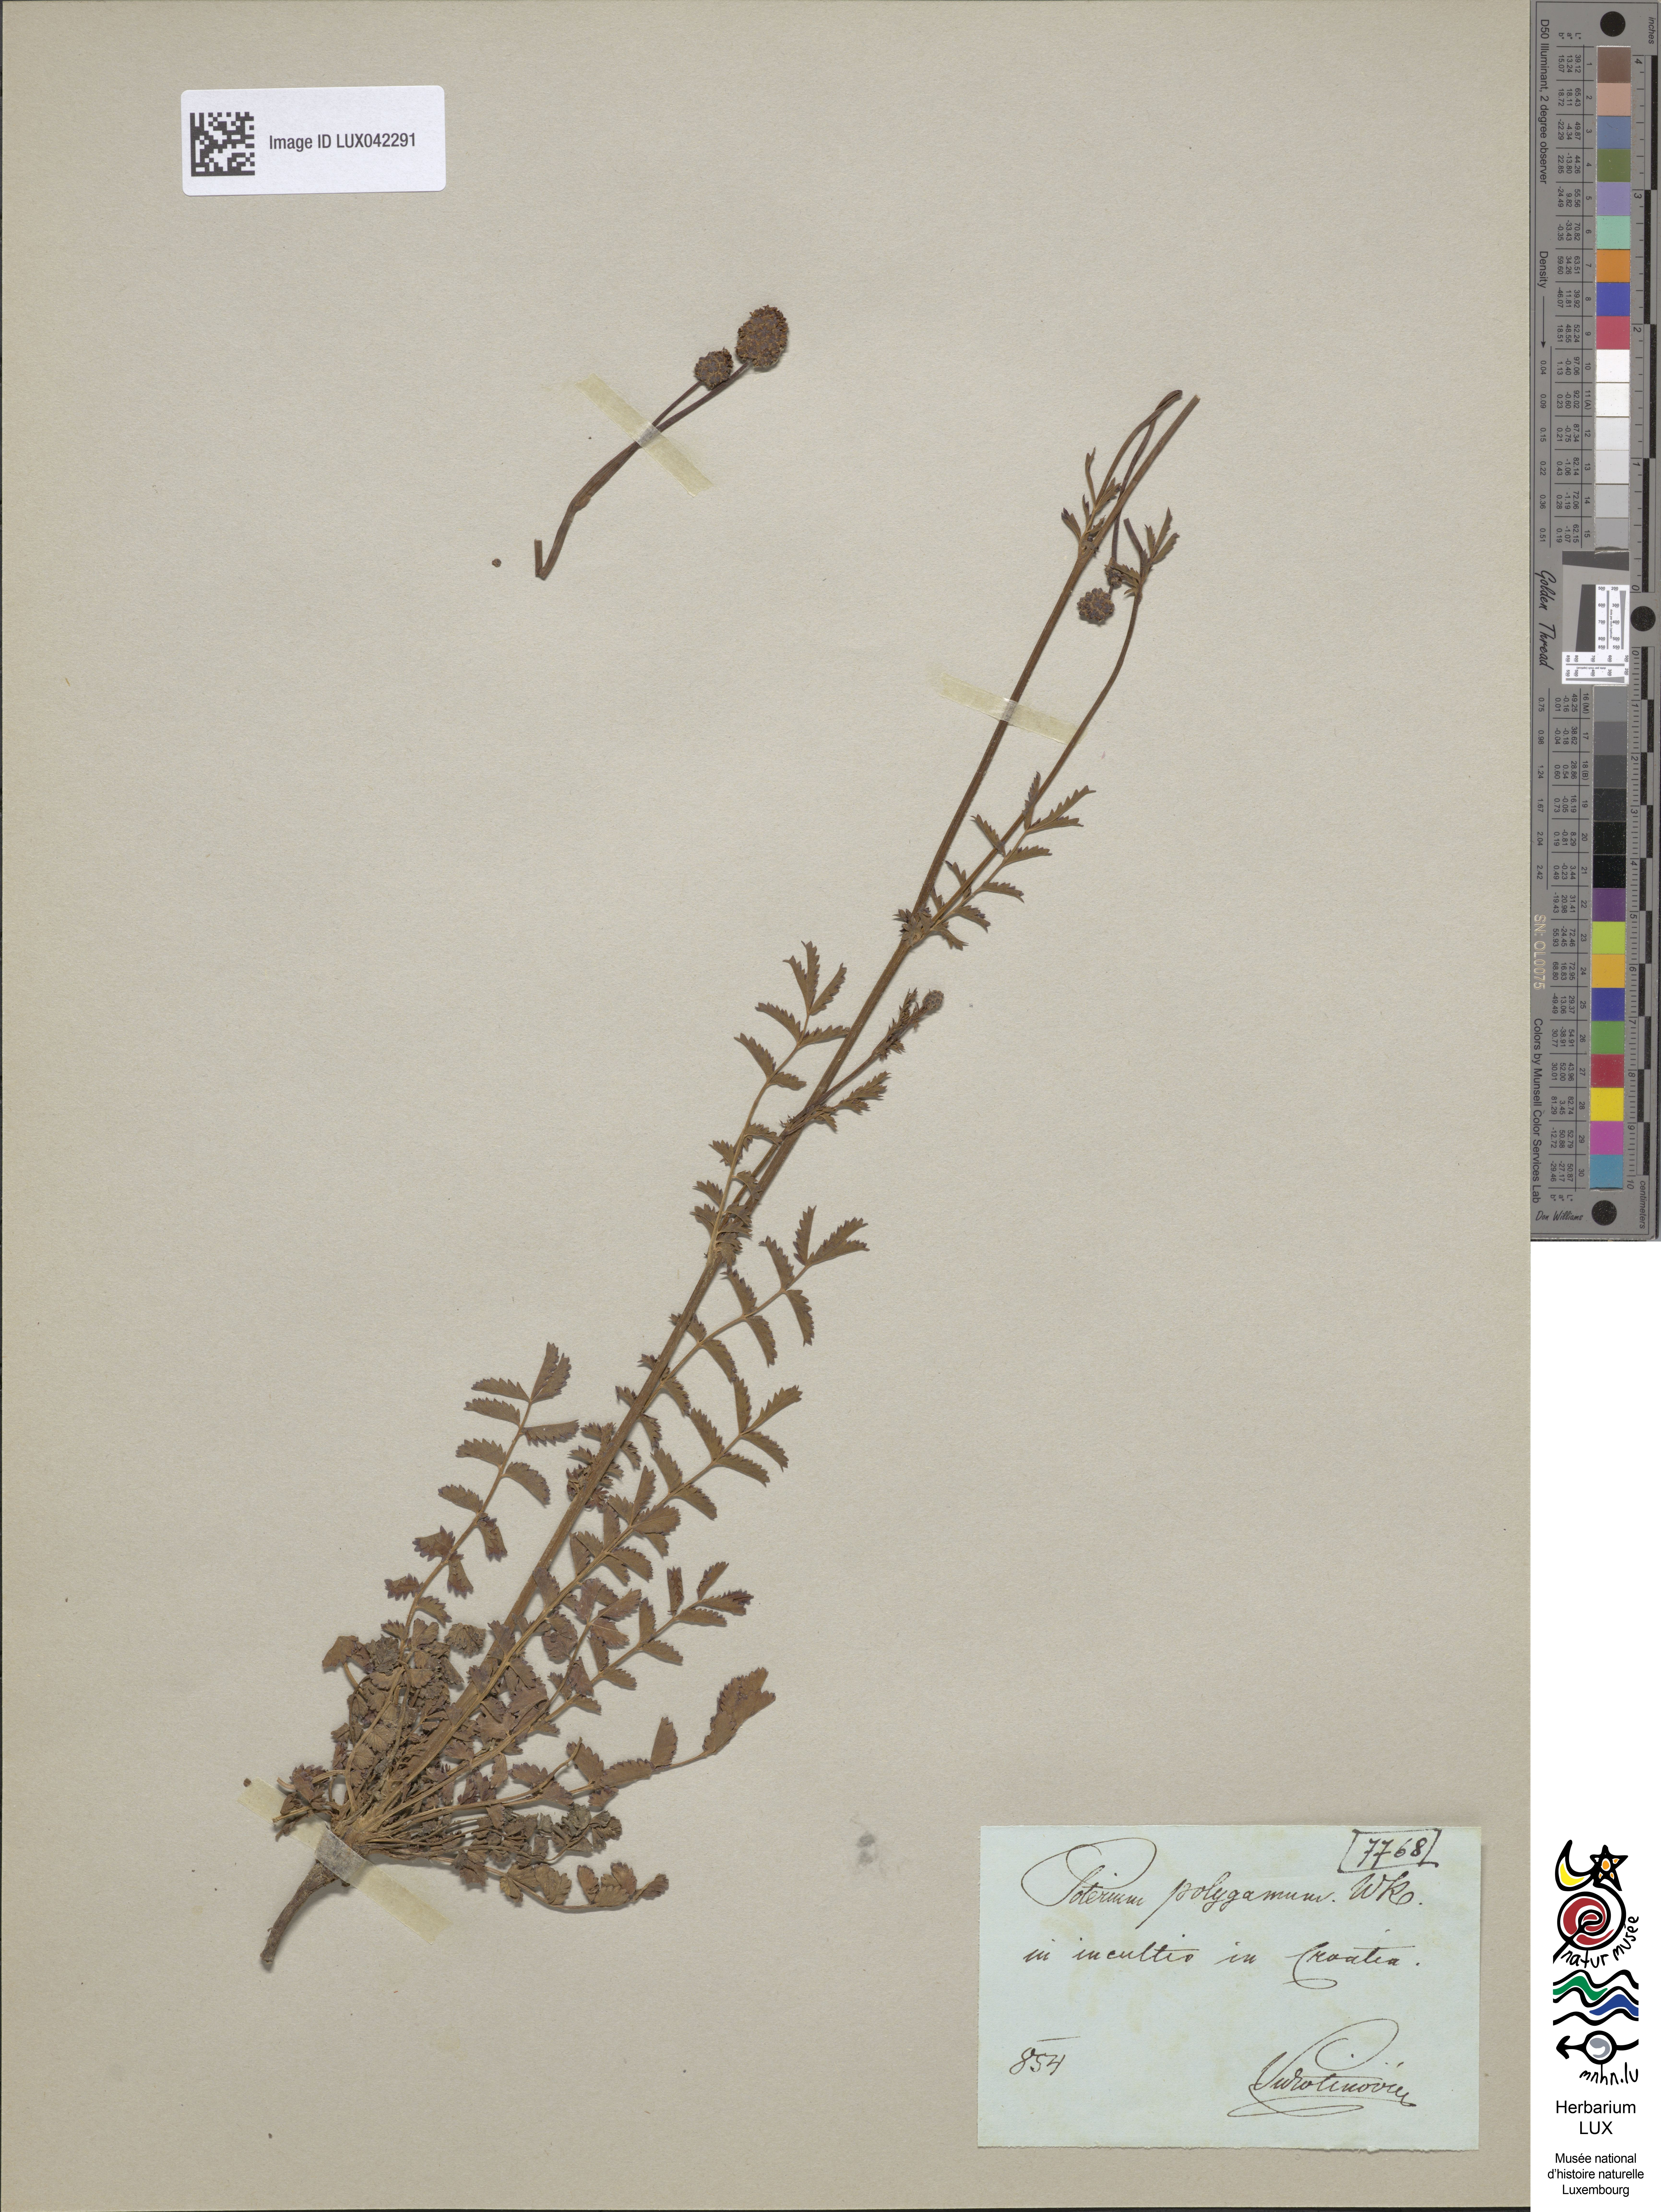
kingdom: Plantae
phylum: Tracheophyta
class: Magnoliopsida
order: Rosales
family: Rosaceae
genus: Poterium
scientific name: Poterium sanguisorba
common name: Salad burnet
